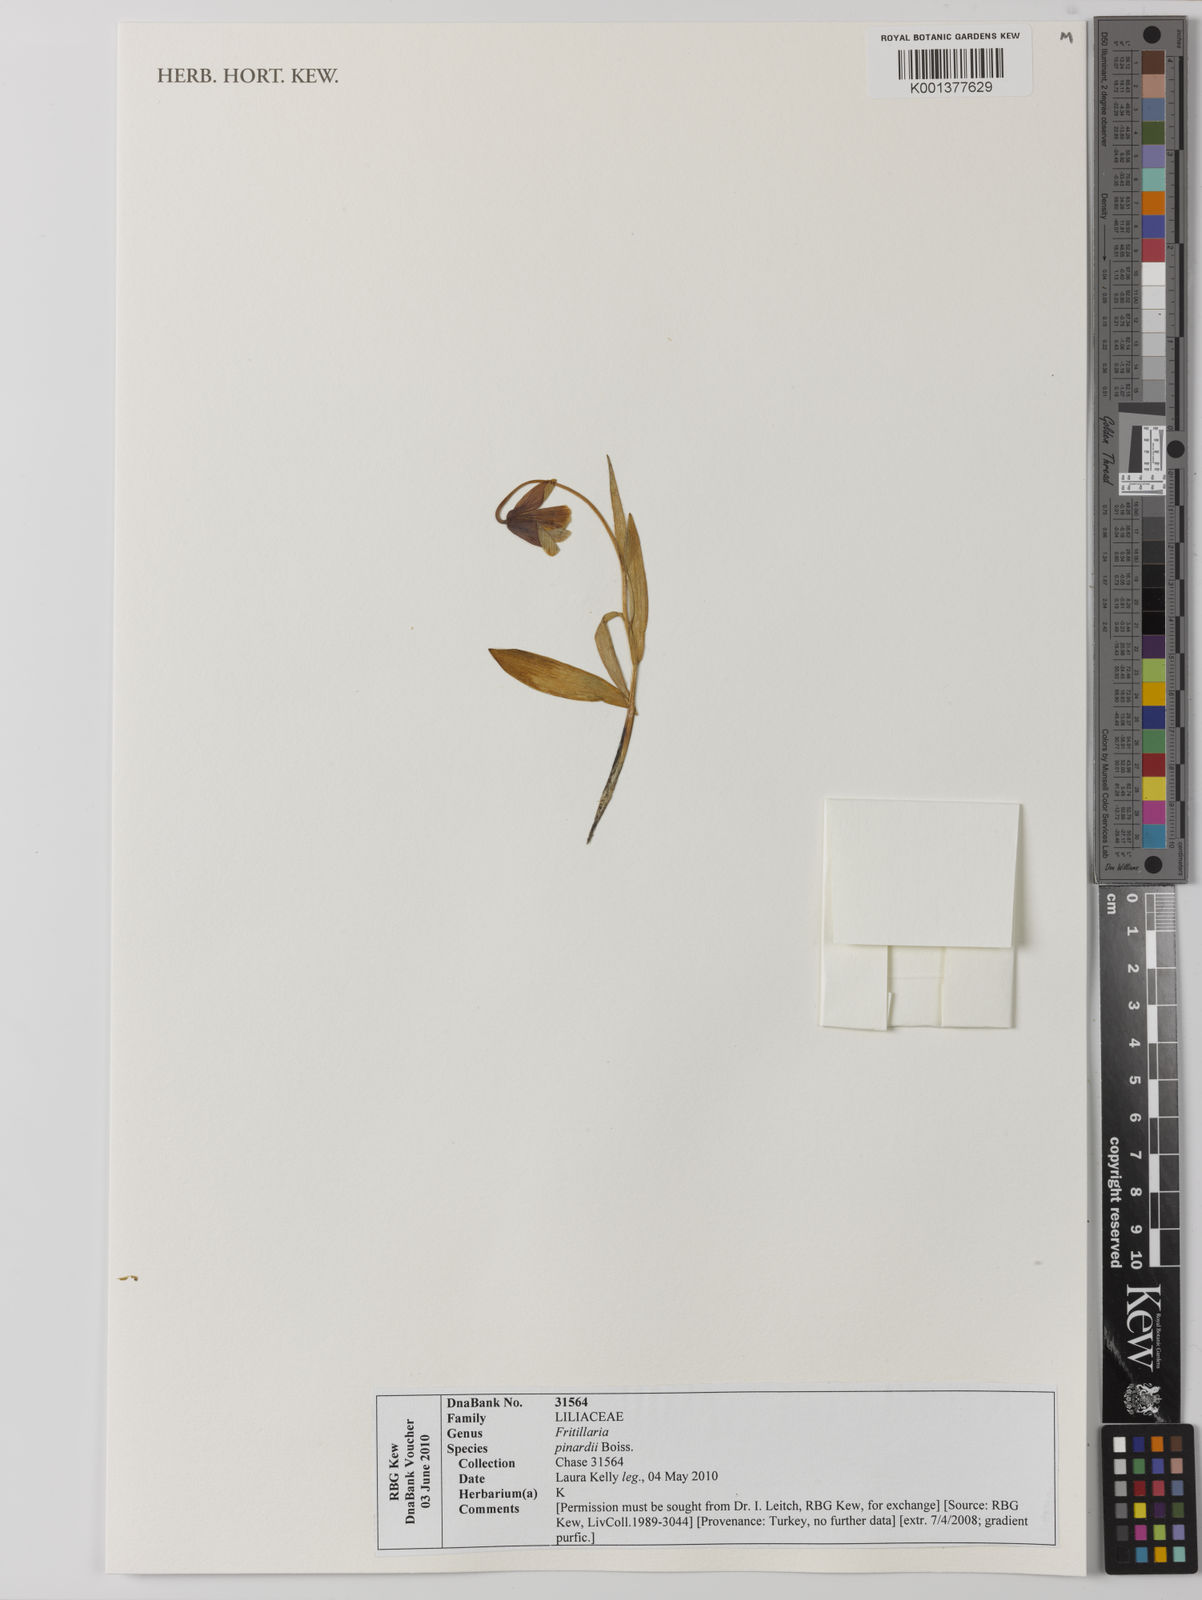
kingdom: Plantae
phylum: Tracheophyta
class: Liliopsida
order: Liliales
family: Liliaceae
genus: Fritillaria
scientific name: Fritillaria pinardii
